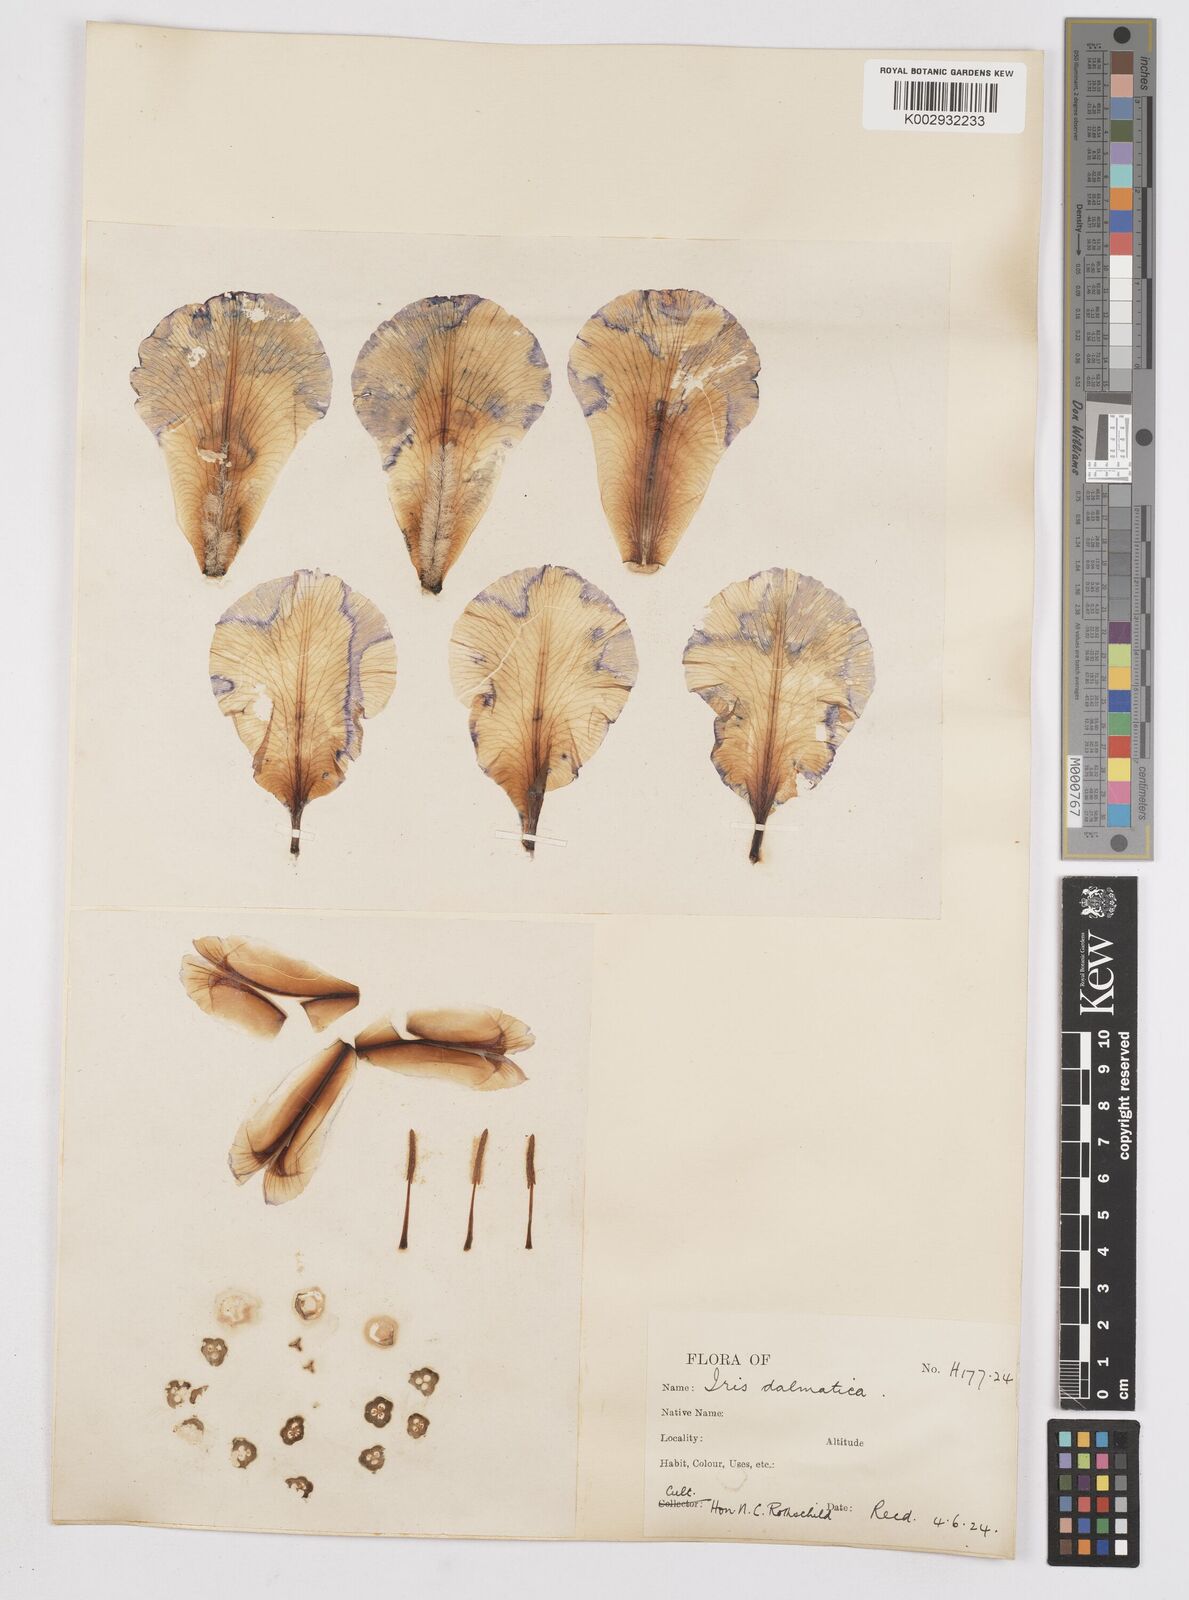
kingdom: Plantae
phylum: Tracheophyta
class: Liliopsida
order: Asparagales
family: Iridaceae
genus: Iris
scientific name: Iris pallida
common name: Sweet iris
